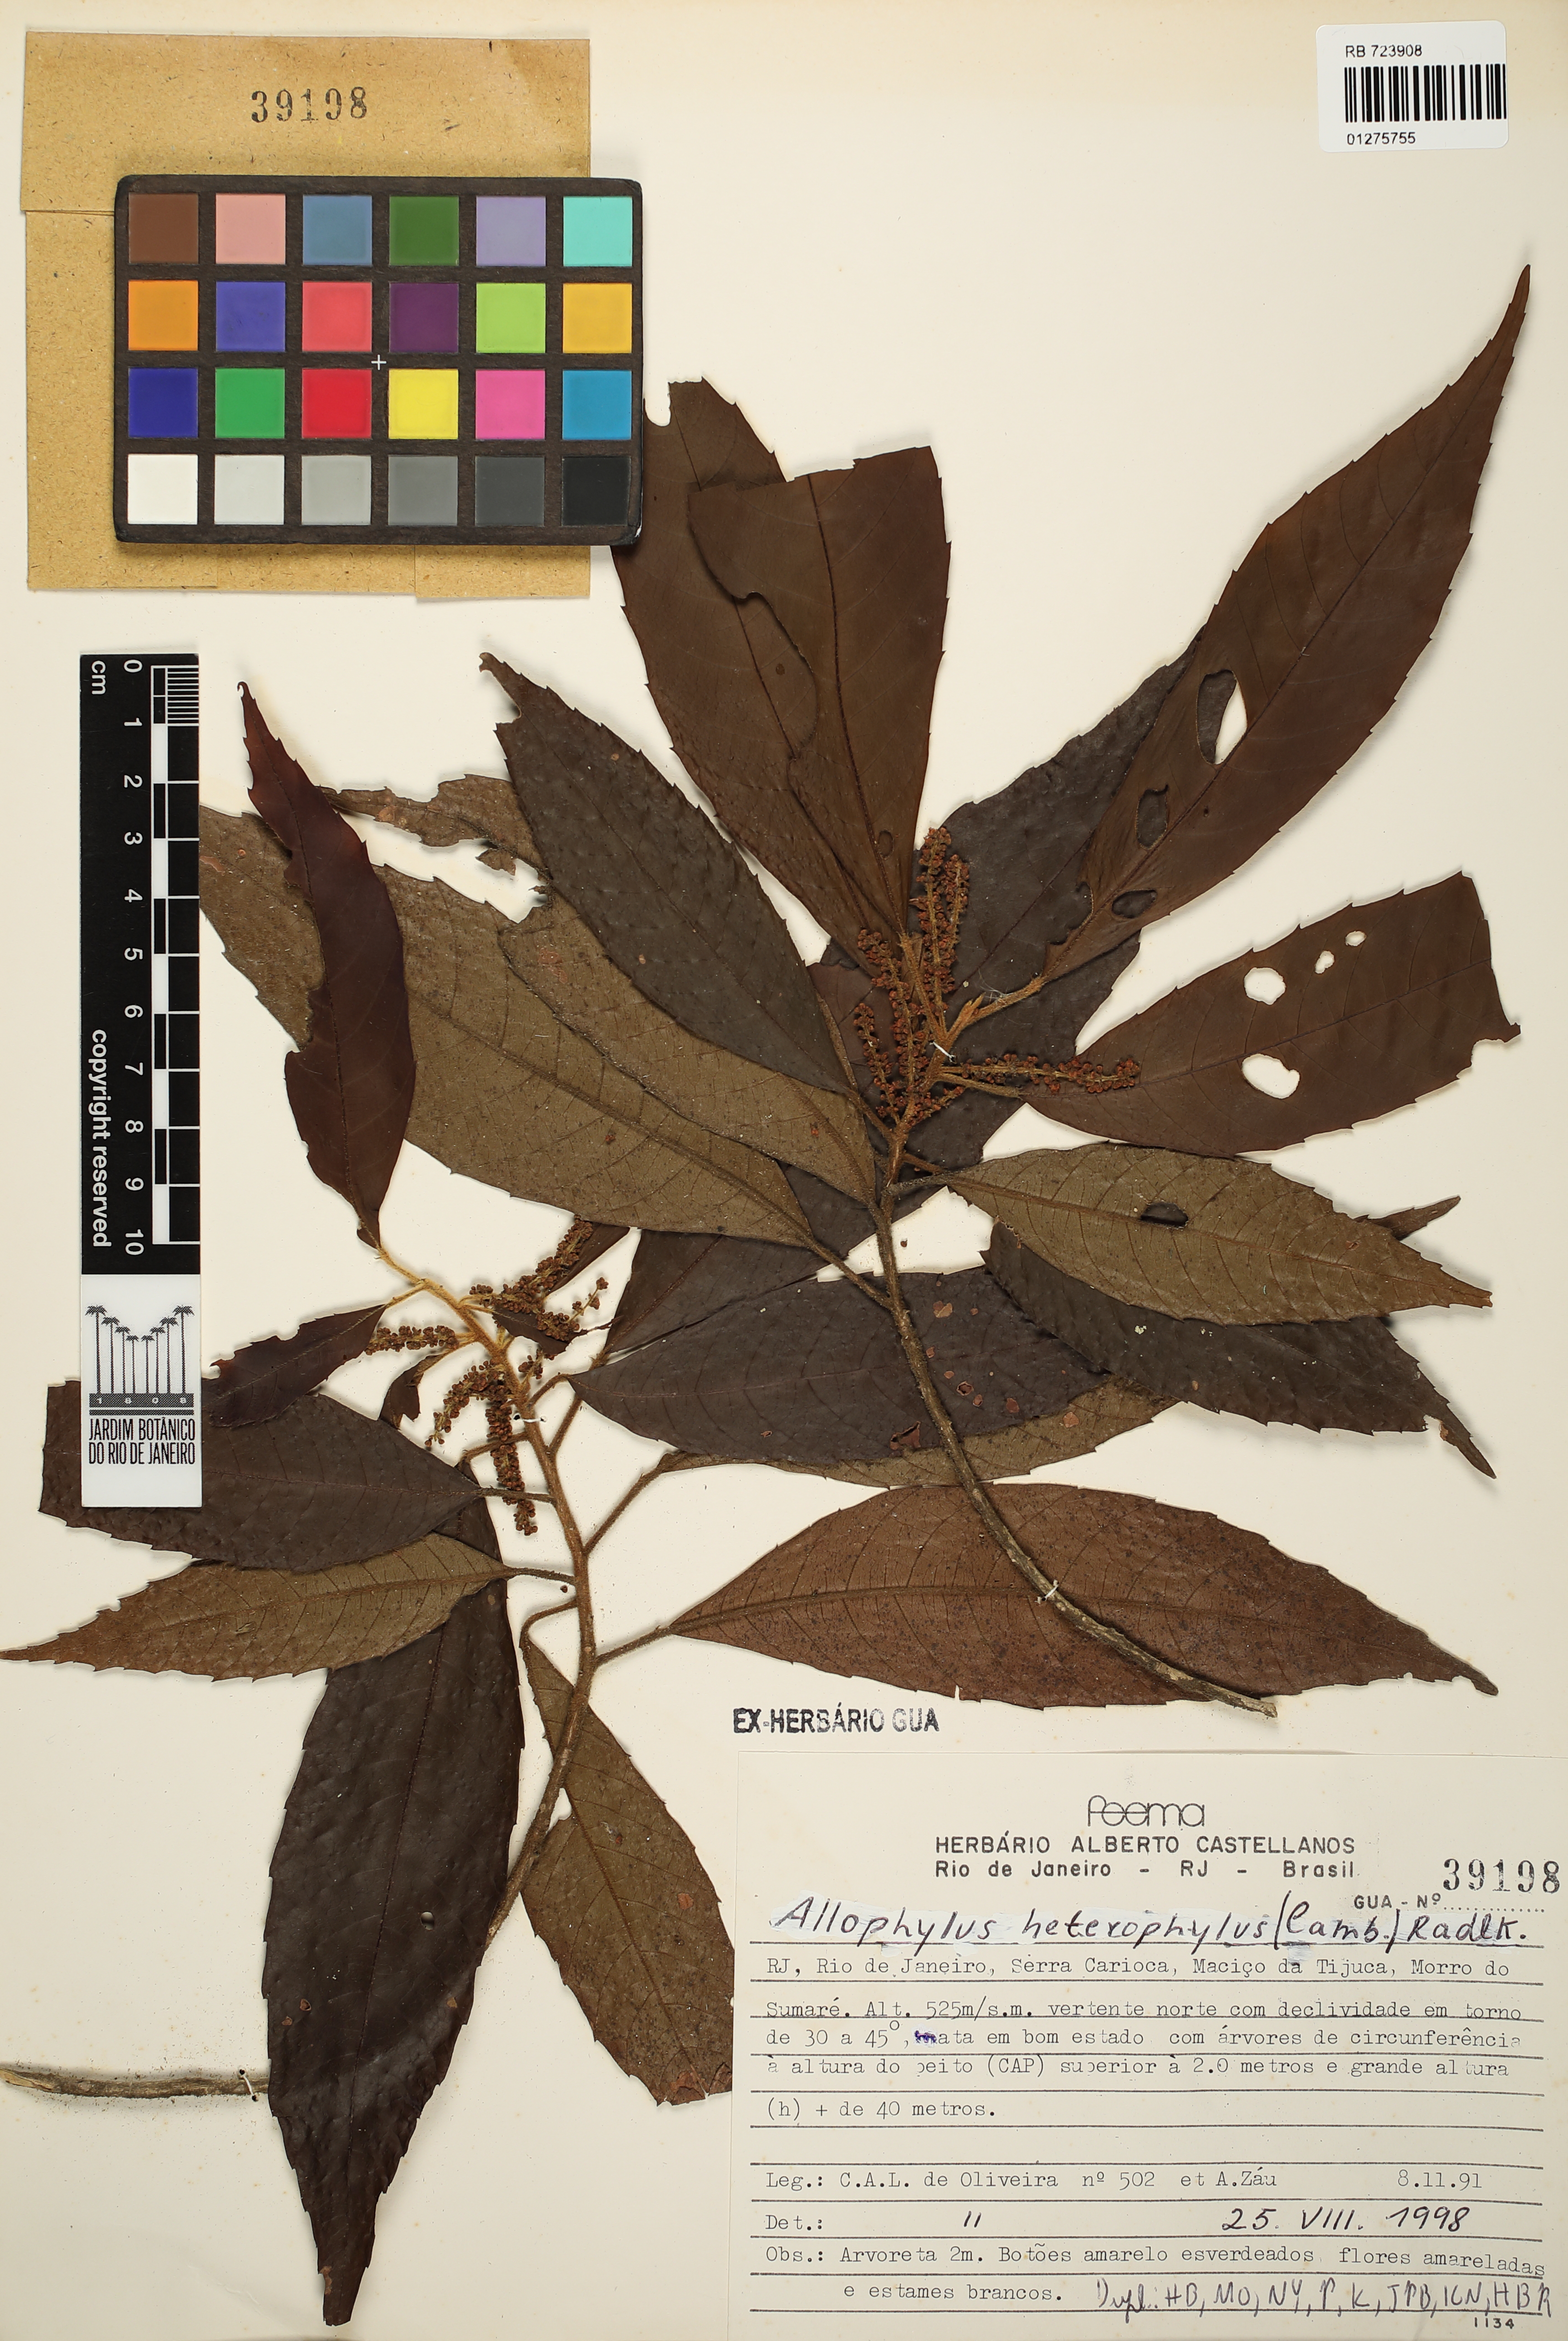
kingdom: Plantae
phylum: Tracheophyta
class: Magnoliopsida
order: Sapindales
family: Sapindaceae
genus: Allophylus
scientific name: Allophylus heterophyllus
